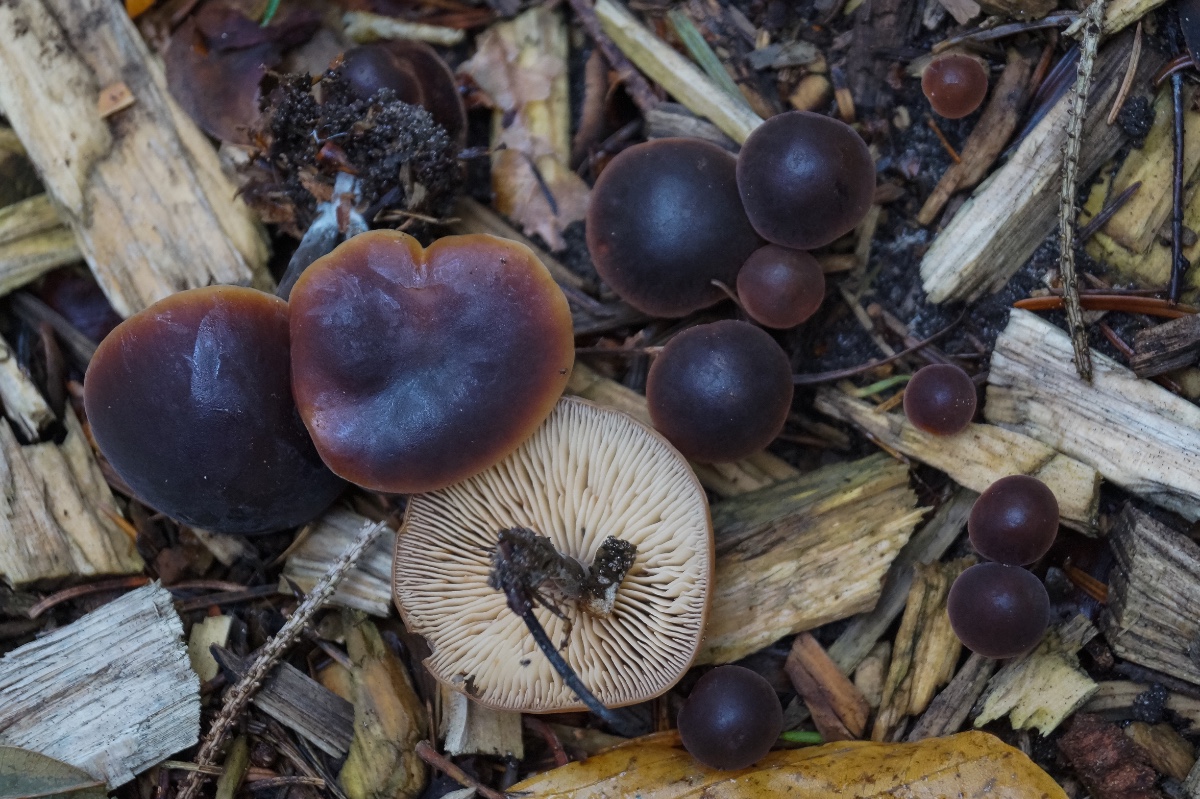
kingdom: Fungi
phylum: Basidiomycota
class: Agaricomycetes
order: Agaricales
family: Macrocystidiaceae
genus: Macrocystidia
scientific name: Macrocystidia cucumis
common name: agurkehat
